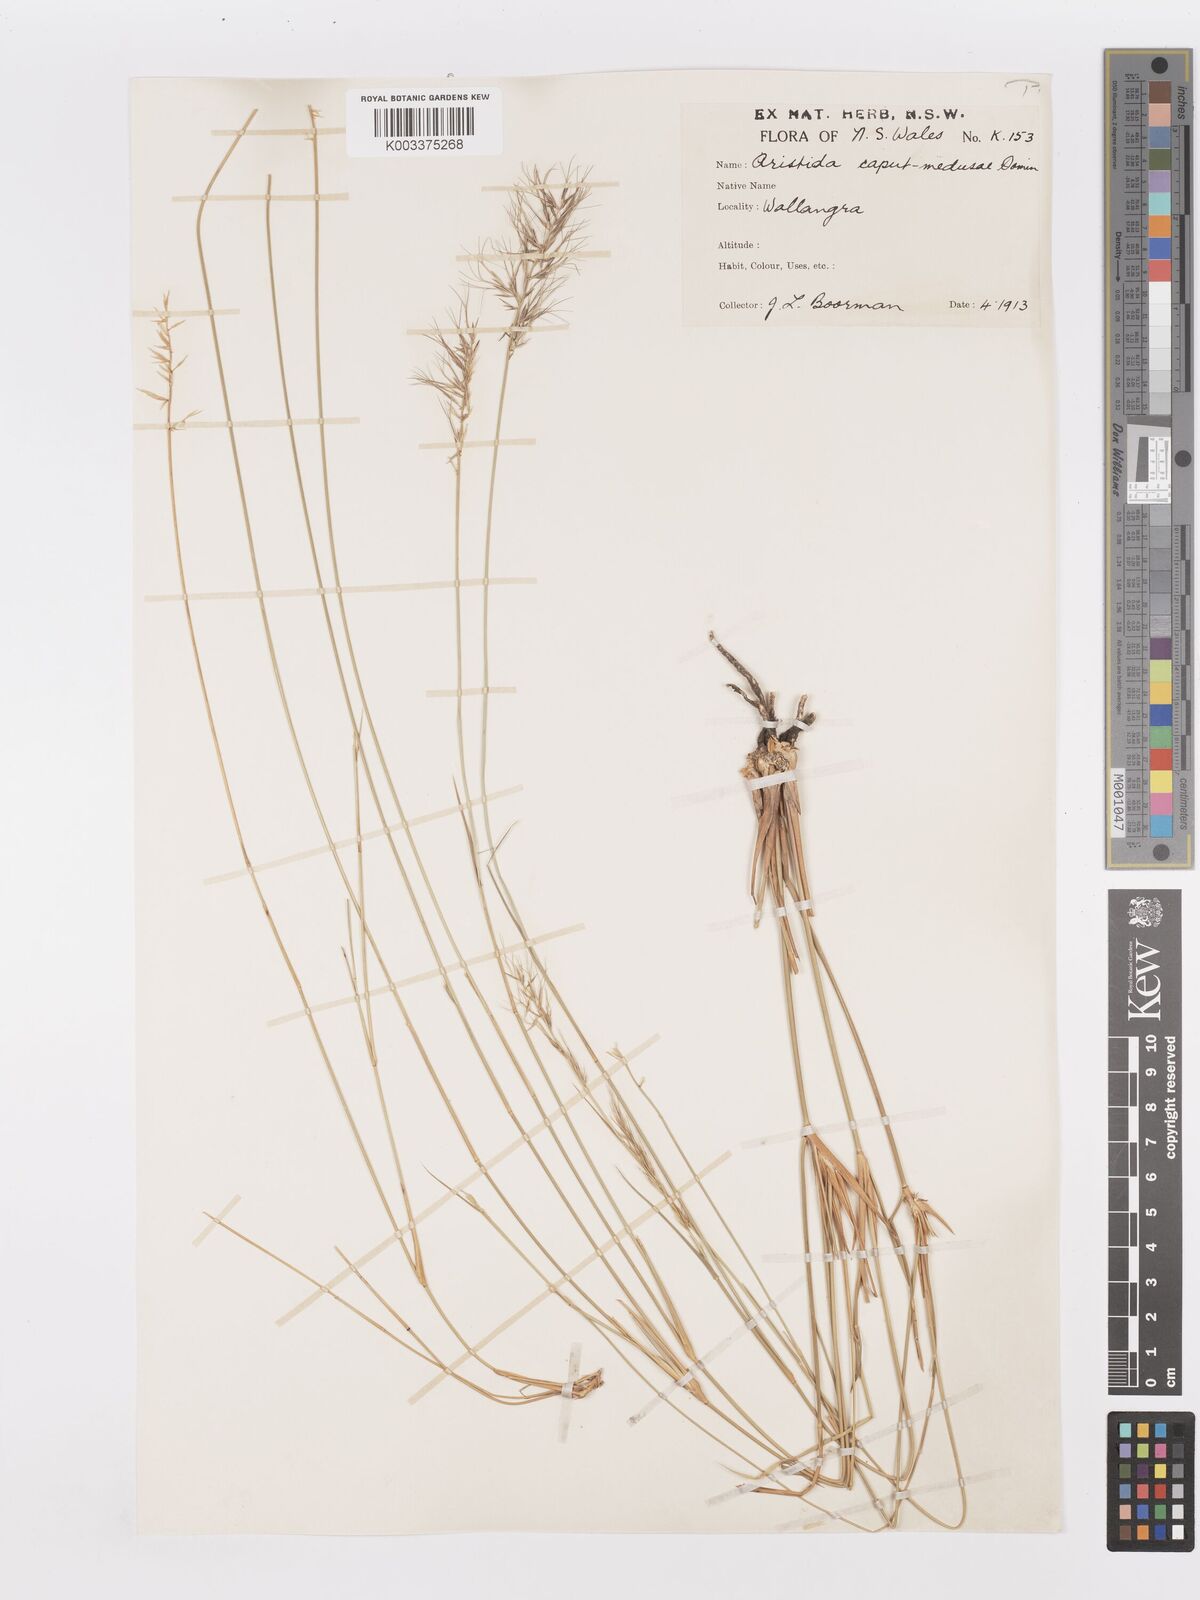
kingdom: Plantae
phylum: Tracheophyta
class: Liliopsida
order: Poales
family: Poaceae
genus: Aristida
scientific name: Aristida caput-medusae
